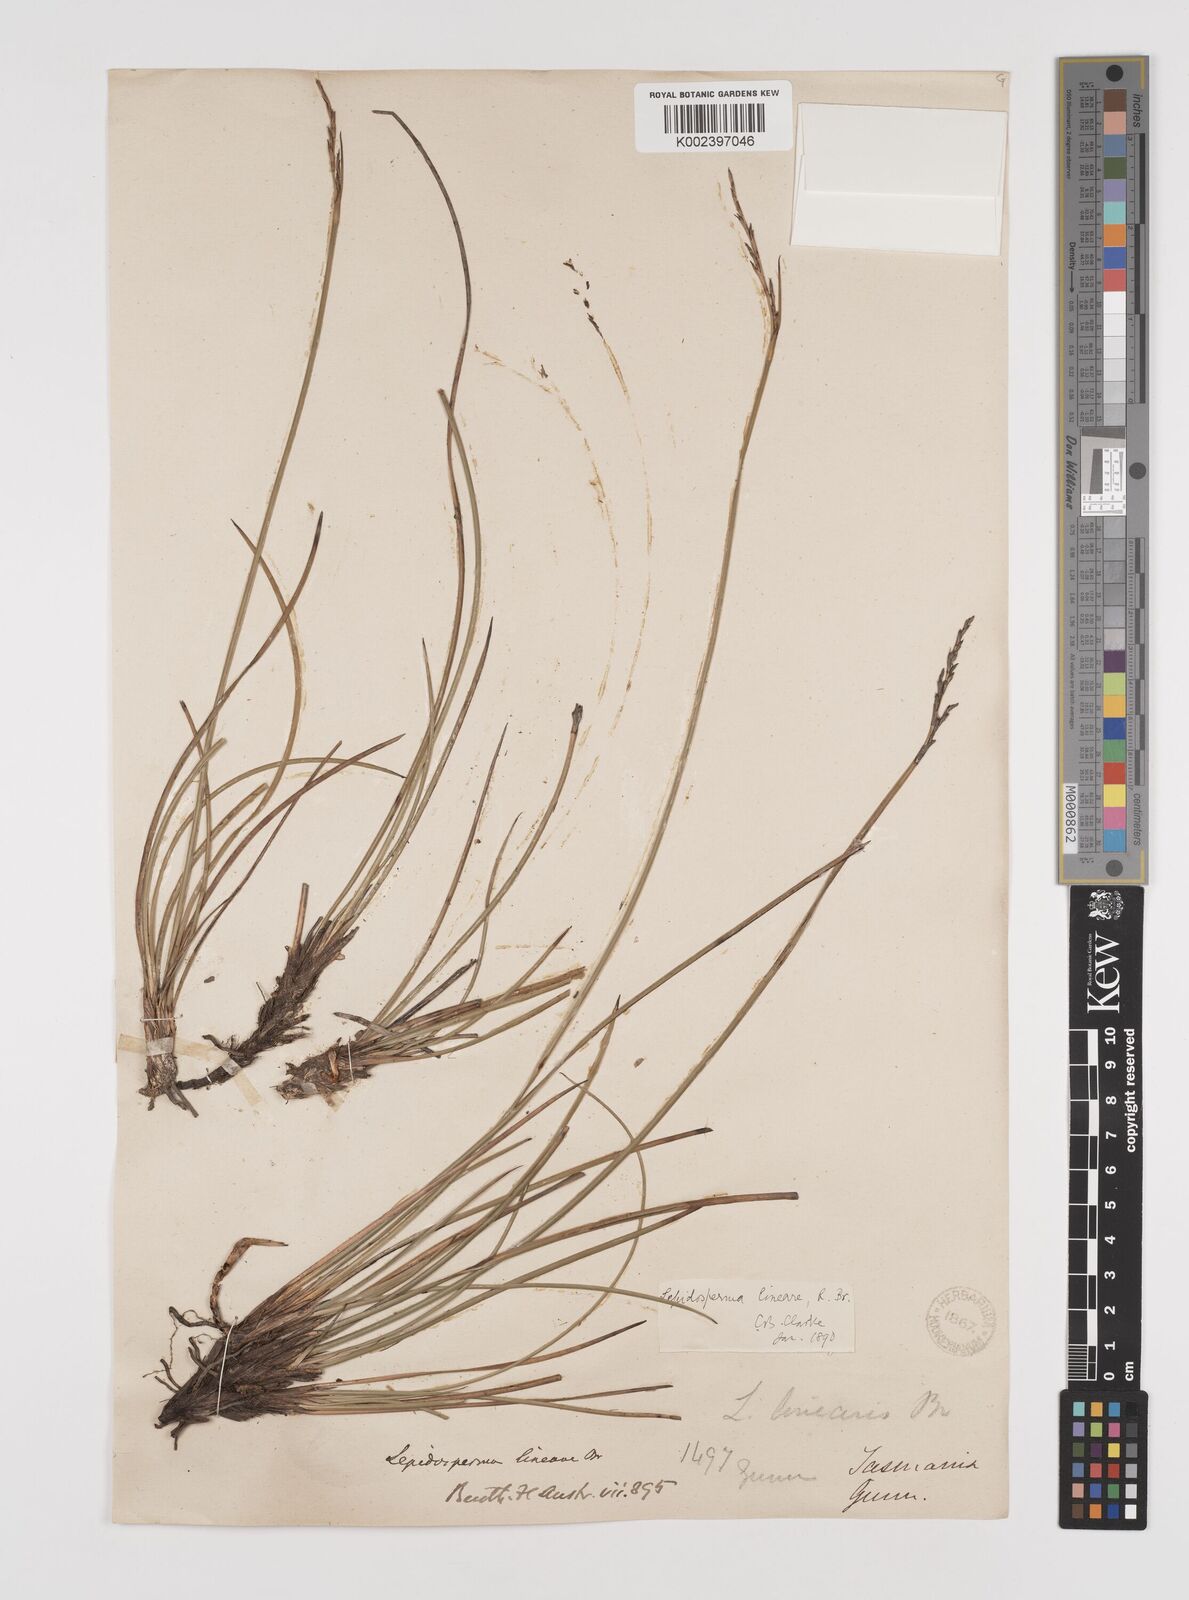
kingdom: Plantae
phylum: Tracheophyta
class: Liliopsida
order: Poales
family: Cyperaceae
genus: Lepidosperma
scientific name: Lepidosperma lineare
